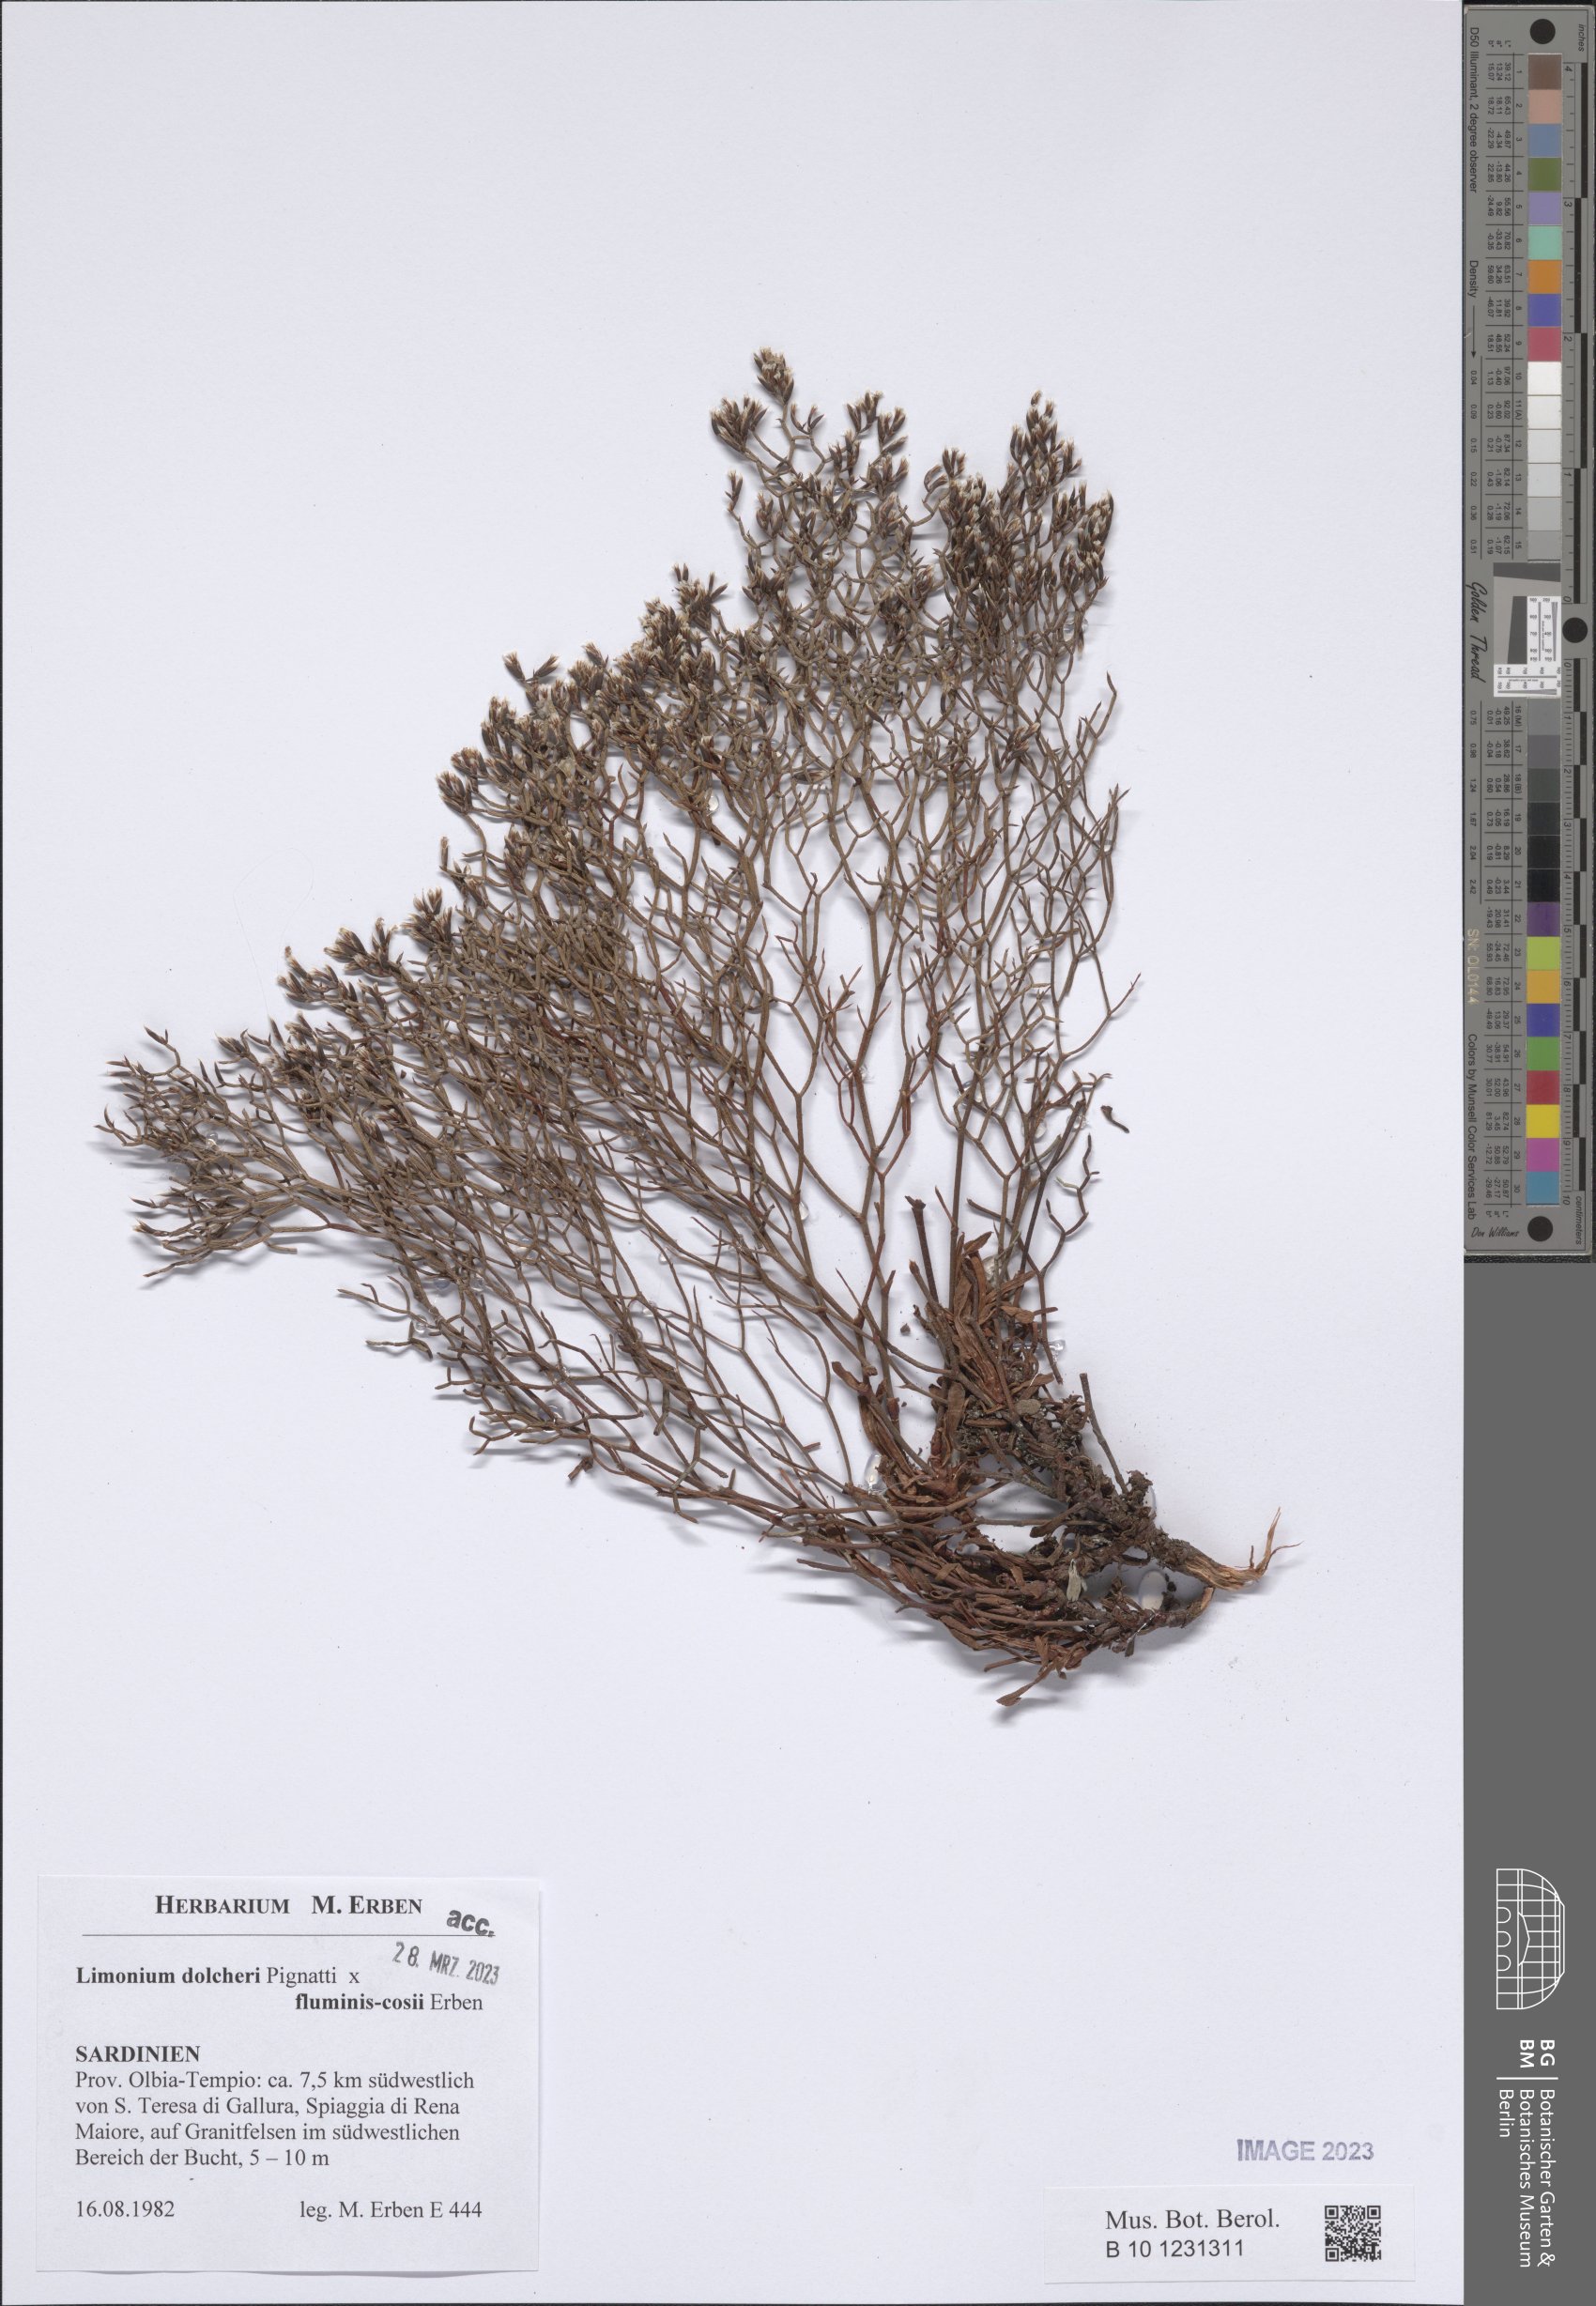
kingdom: Plantae
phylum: Tracheophyta
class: Magnoliopsida
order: Caryophyllales
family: Plumbaginaceae
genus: Limonium
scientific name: Limonium dolcheri
